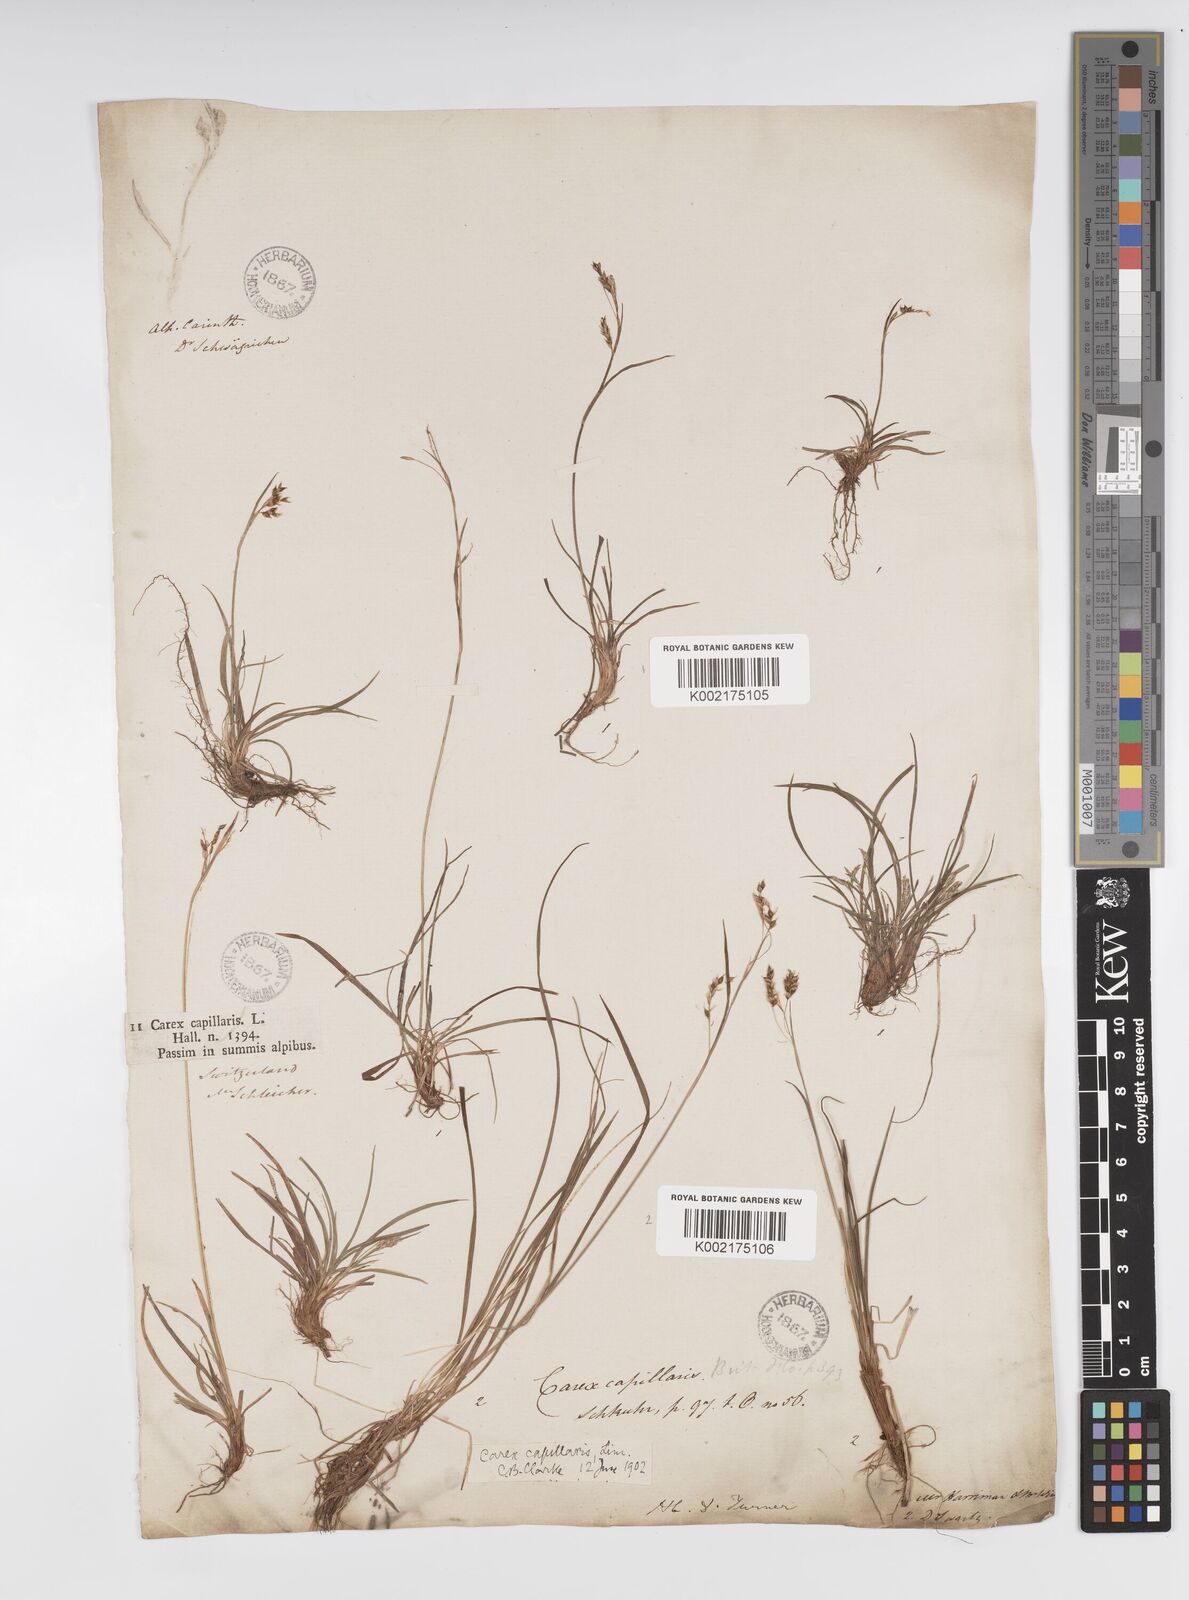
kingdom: Plantae
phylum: Tracheophyta
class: Liliopsida
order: Poales
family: Cyperaceae
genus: Carex
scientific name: Carex capillaris
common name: Hair sedge
